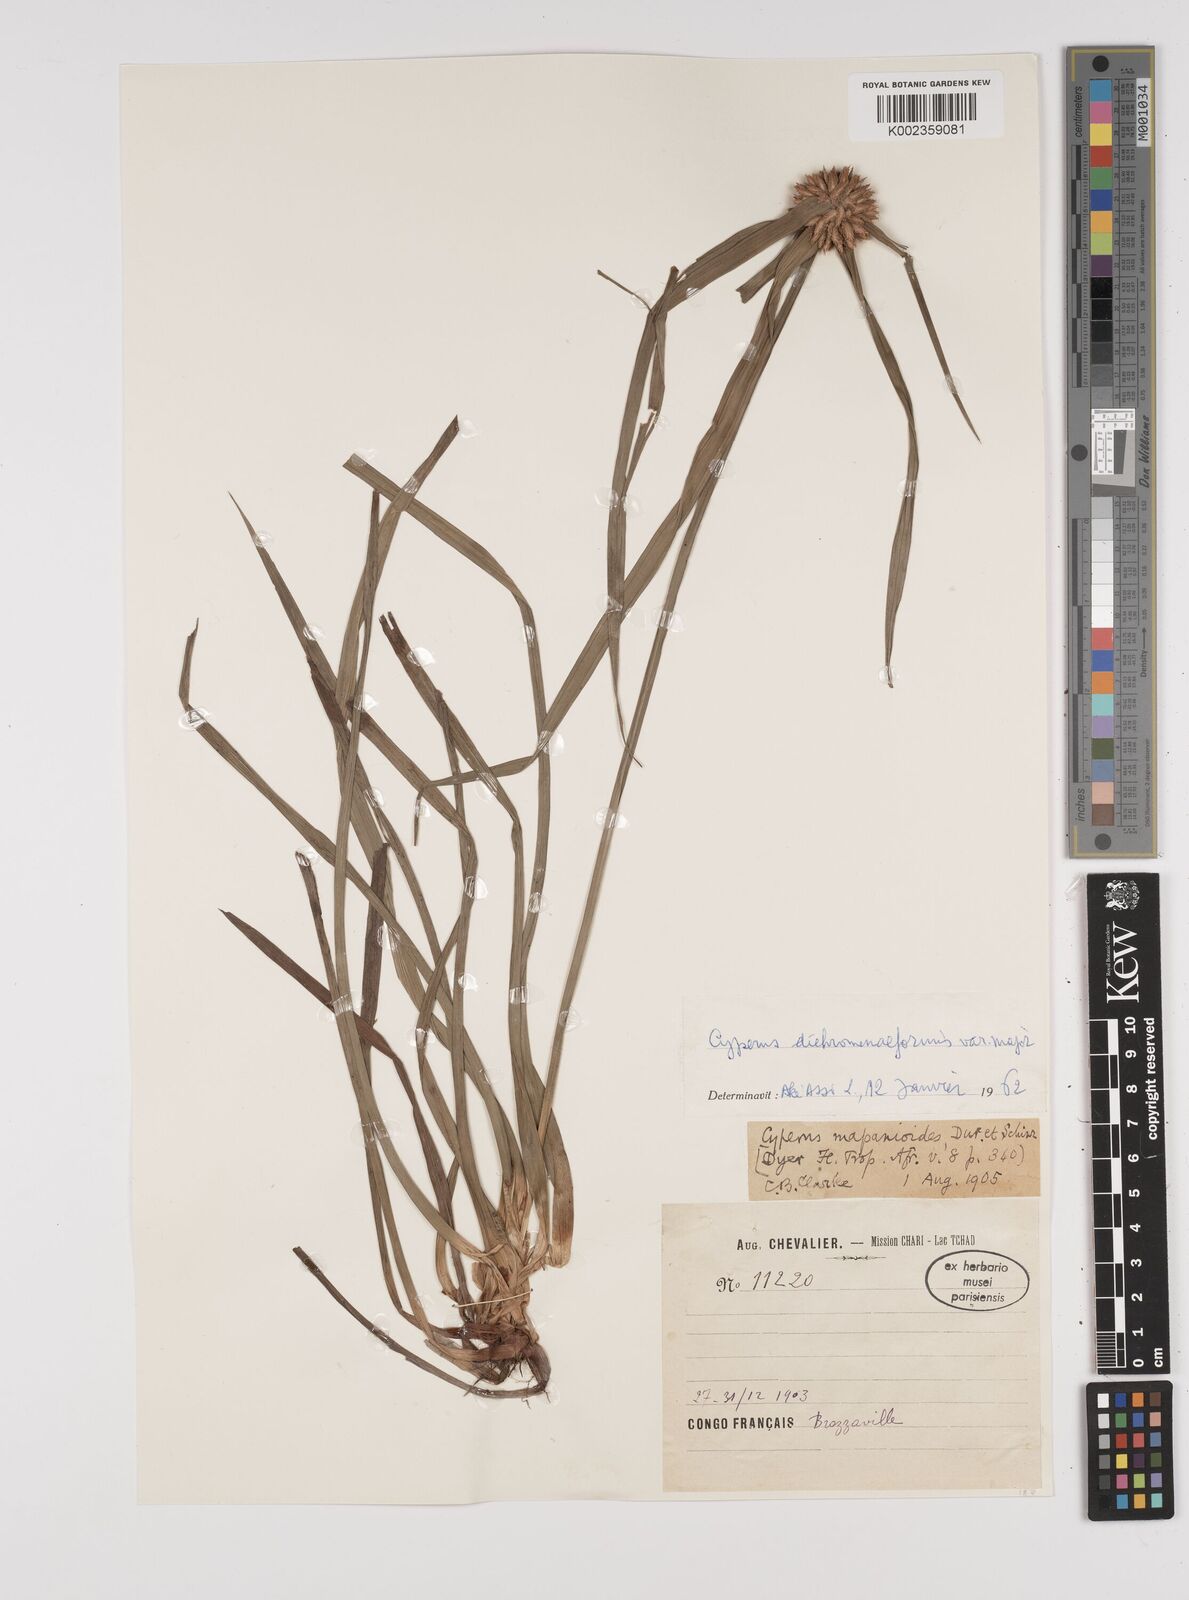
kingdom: Plantae
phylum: Tracheophyta
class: Liliopsida
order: Poales
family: Cyperaceae
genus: Cyperus
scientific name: Cyperus mapanioides
